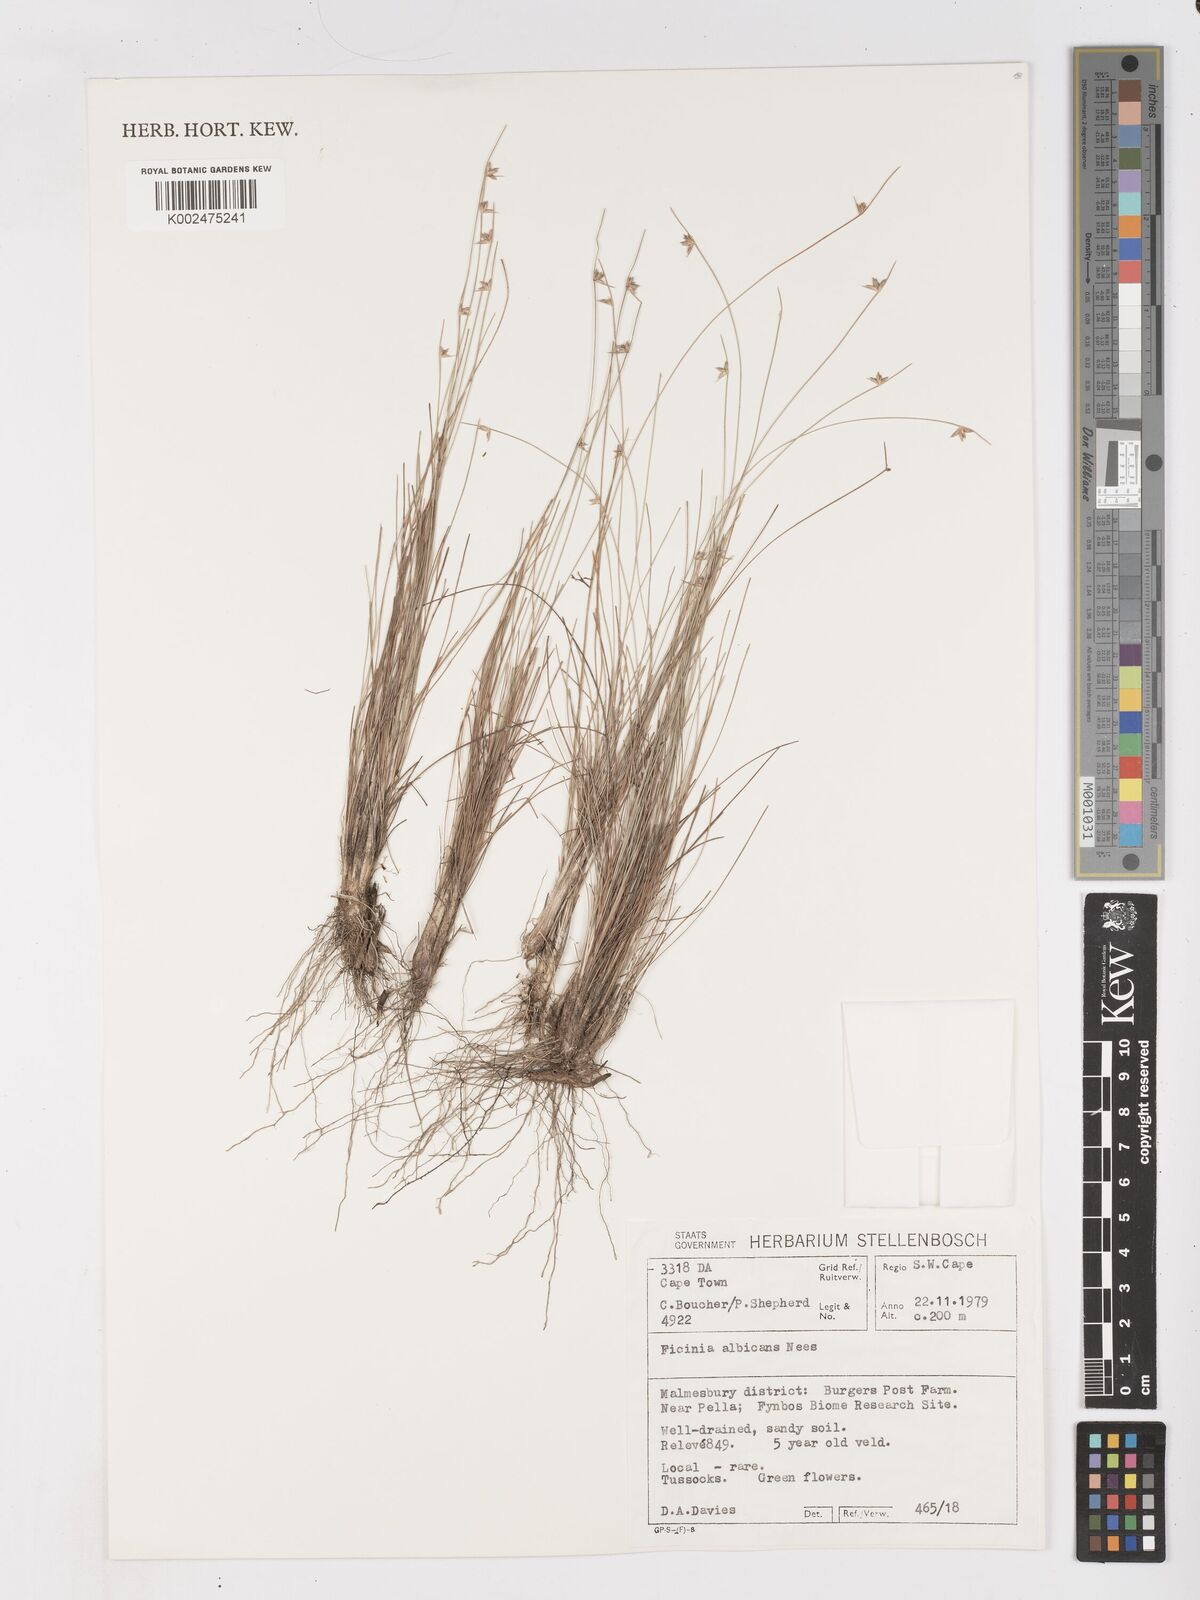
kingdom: Plantae
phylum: Tracheophyta
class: Liliopsida
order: Poales
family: Cyperaceae
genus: Ficinia
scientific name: Ficinia albicans
